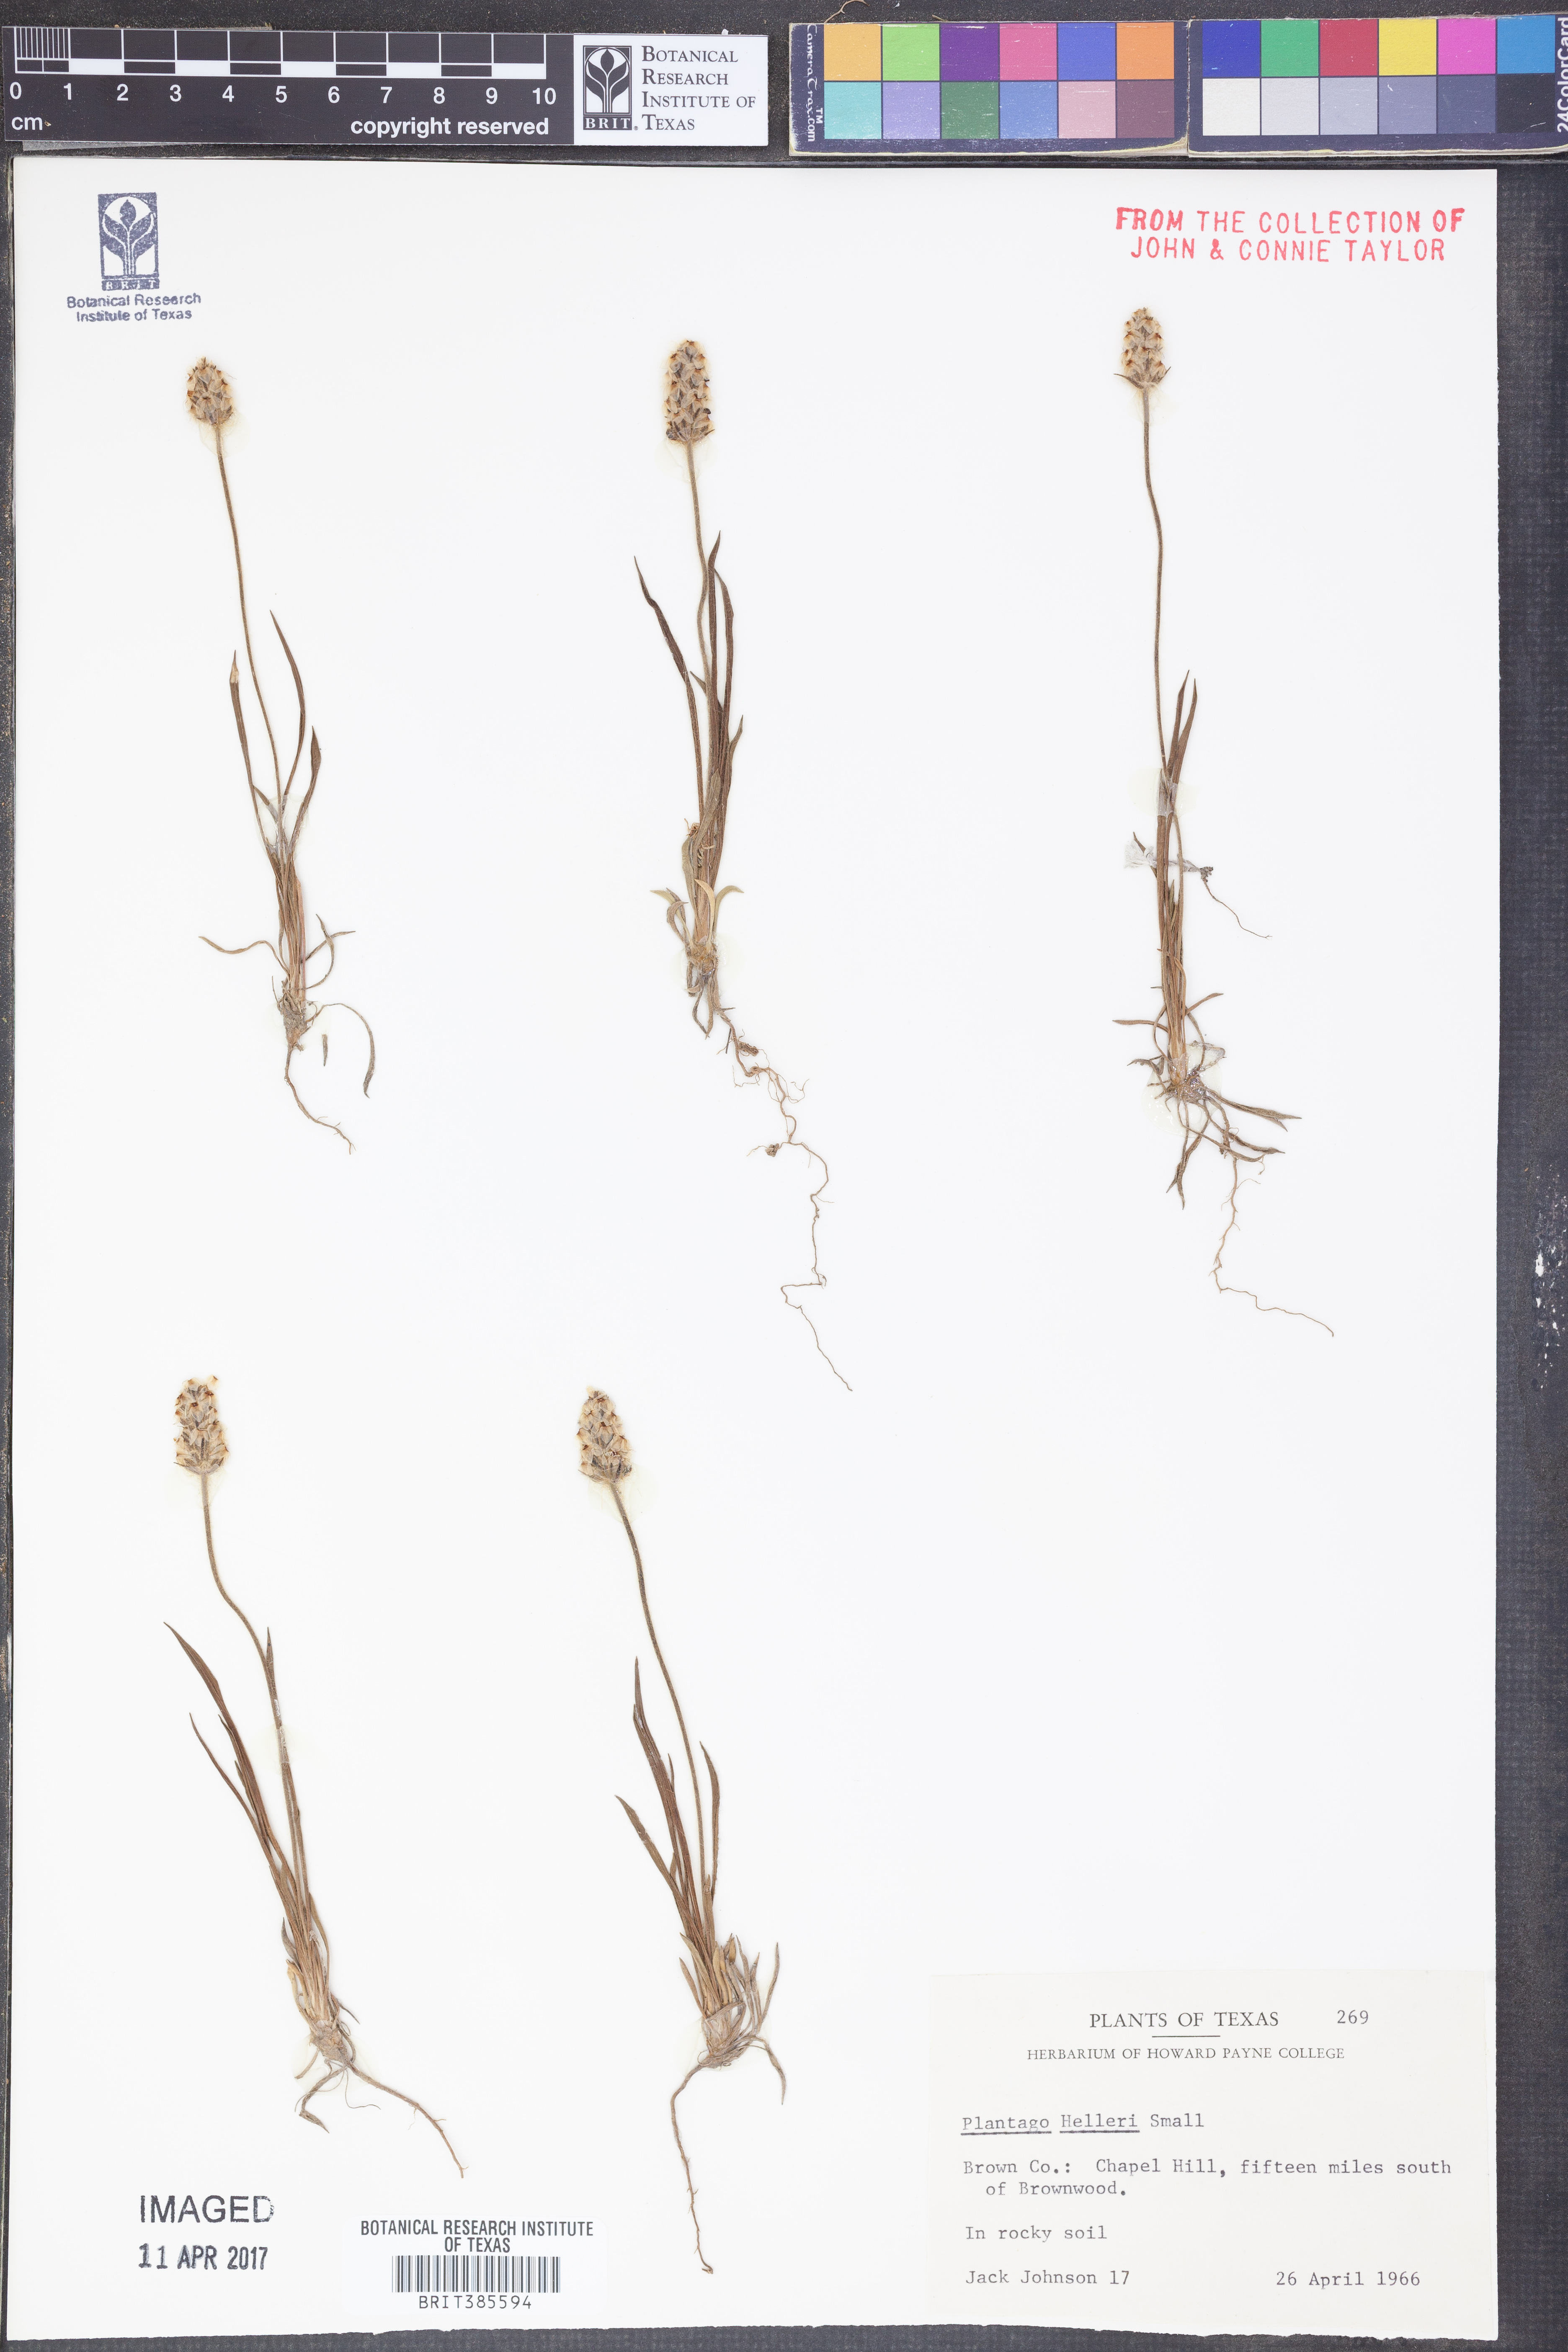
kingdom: Plantae
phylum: Tracheophyta
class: Magnoliopsida
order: Lamiales
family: Plantaginaceae
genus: Plantago
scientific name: Plantago helleri
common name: Heller's plantain
